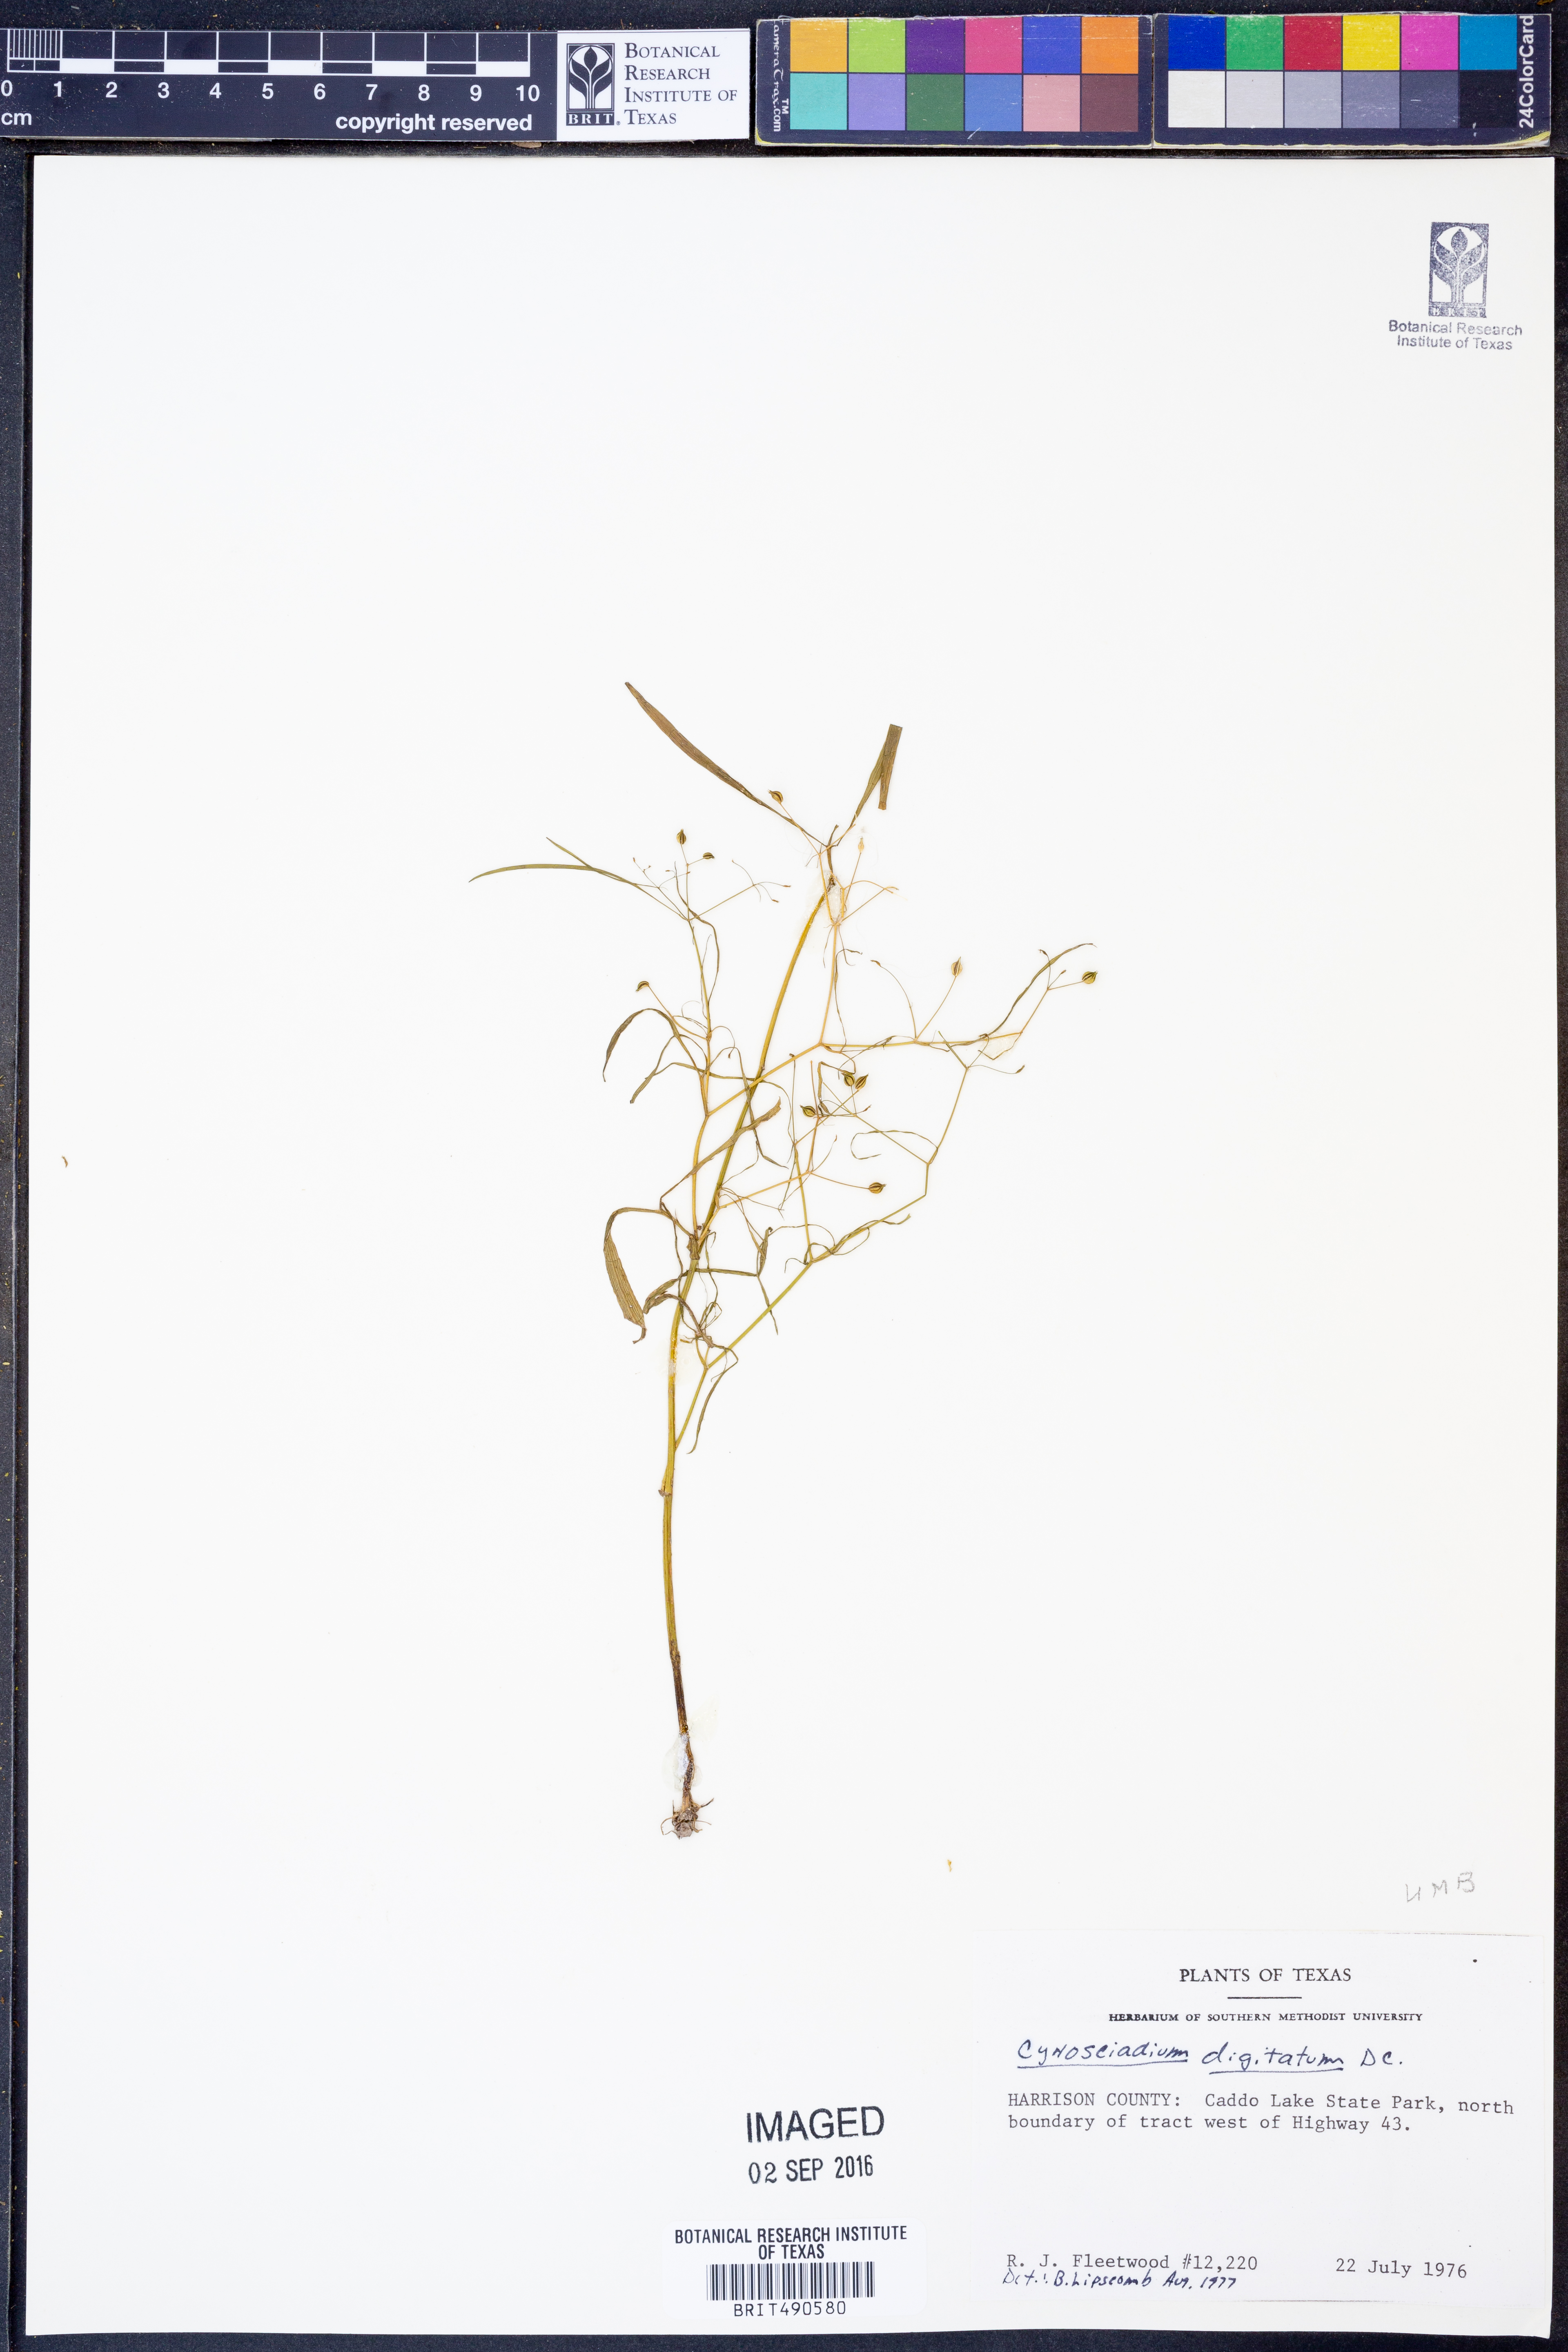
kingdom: Plantae
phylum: Tracheophyta
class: Magnoliopsida
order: Apiales
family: Apiaceae
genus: Cynosciadium
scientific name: Cynosciadium digitatum
